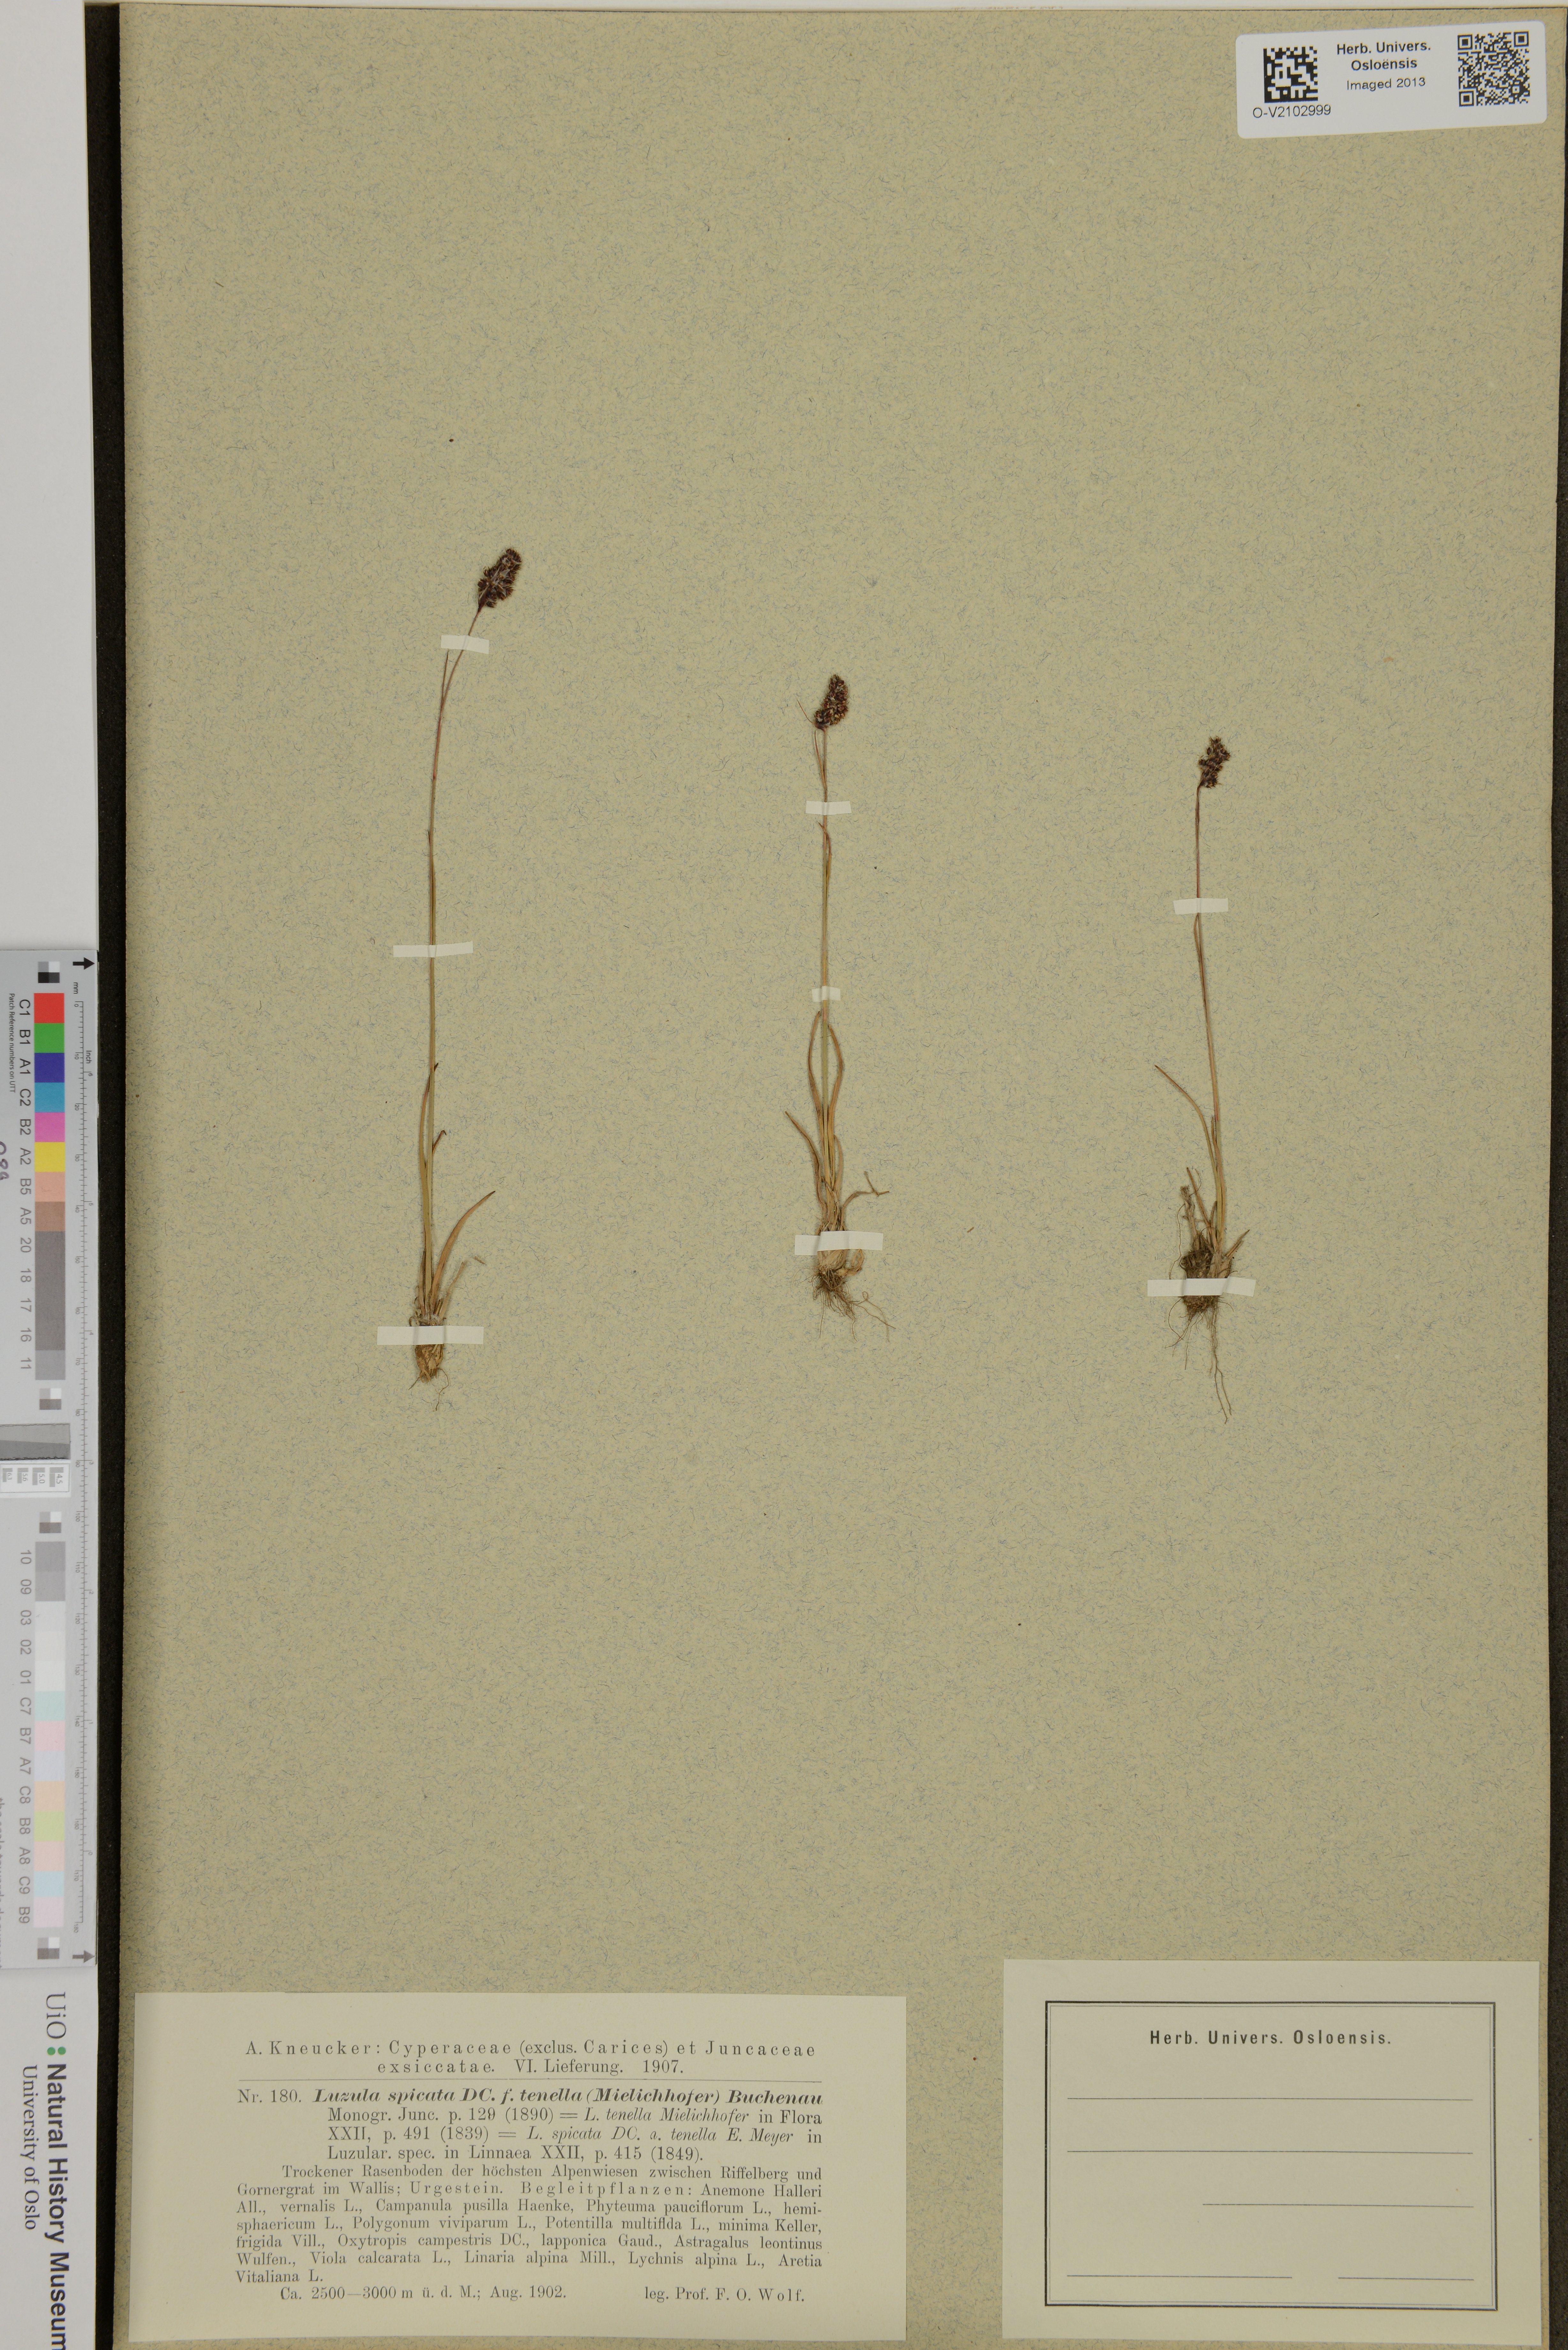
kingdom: Plantae
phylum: Tracheophyta
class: Liliopsida
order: Poales
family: Juncaceae
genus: Luzula
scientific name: Luzula spicata
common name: Spiked wood-rush
